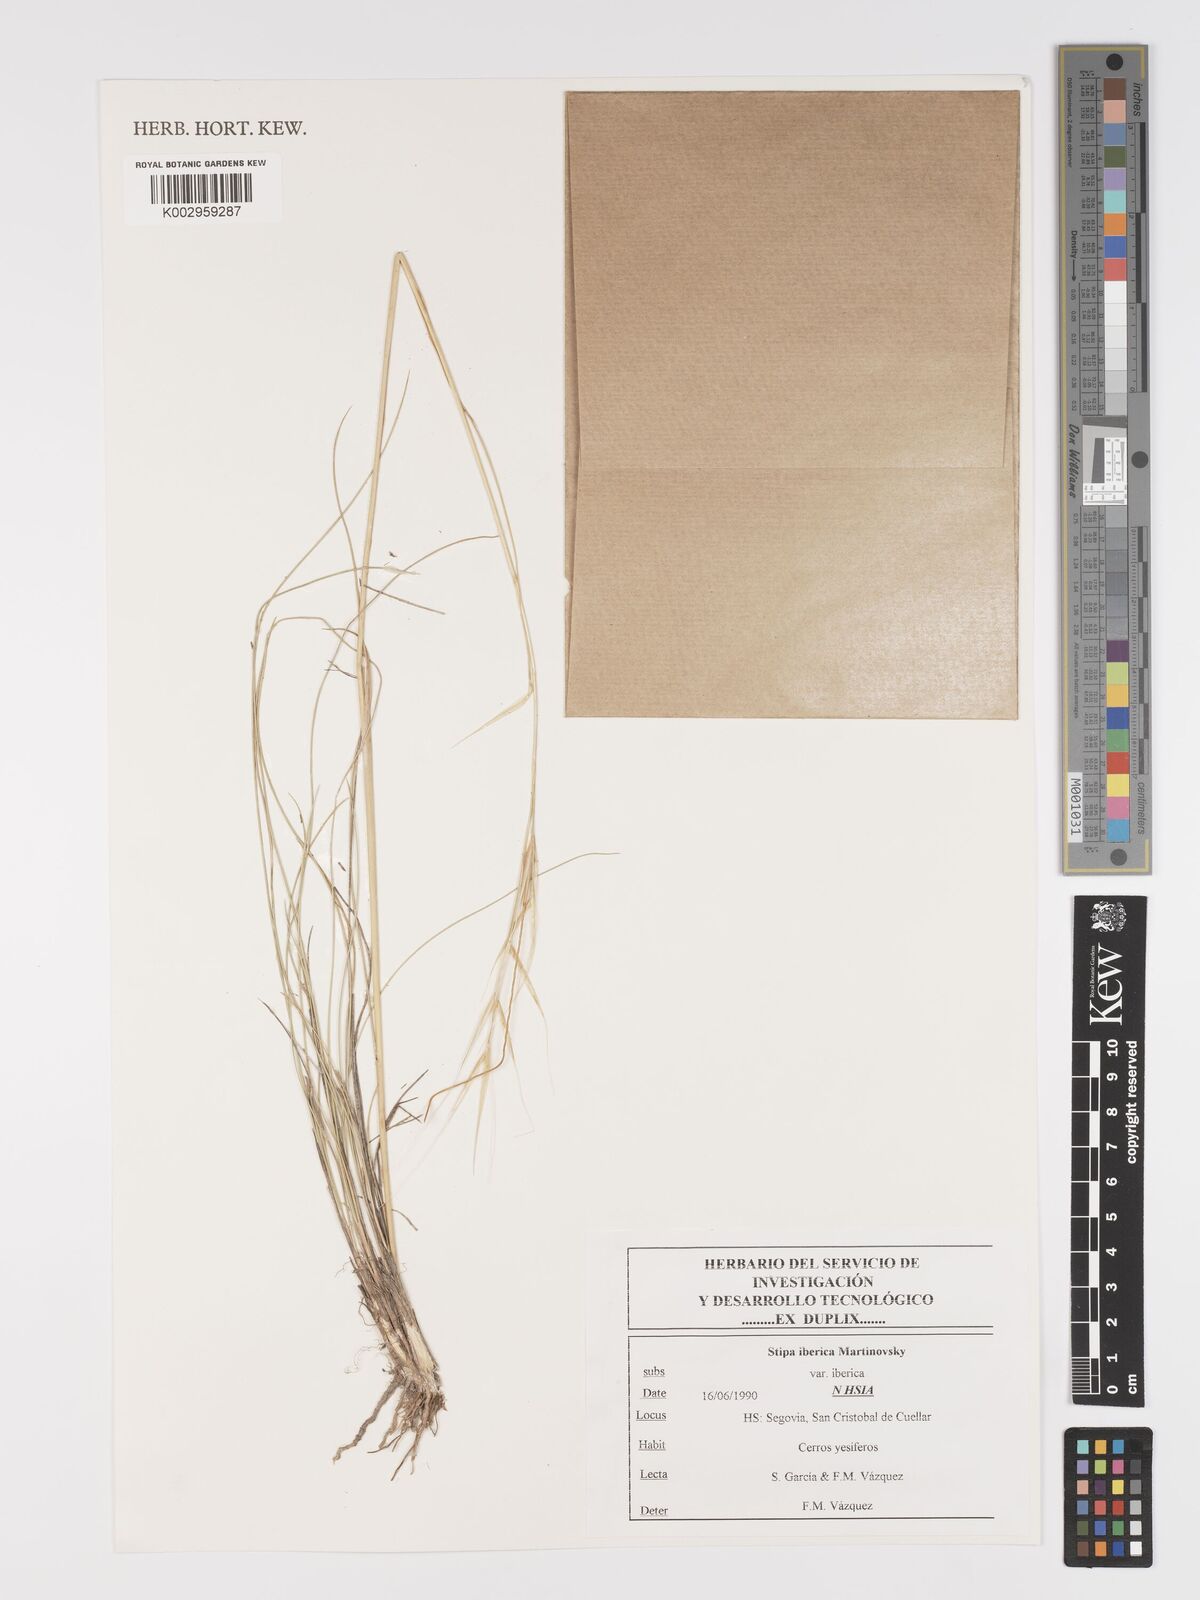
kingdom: Plantae
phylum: Tracheophyta
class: Liliopsida
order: Poales
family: Poaceae
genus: Stipa
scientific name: Stipa iberica
